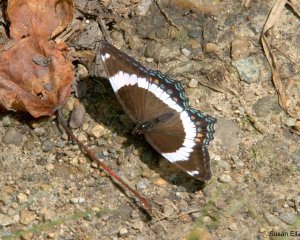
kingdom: Animalia
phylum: Arthropoda
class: Insecta
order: Lepidoptera
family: Nymphalidae
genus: Limenitis
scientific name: Limenitis arthemis
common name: Red-spotted Admiral
